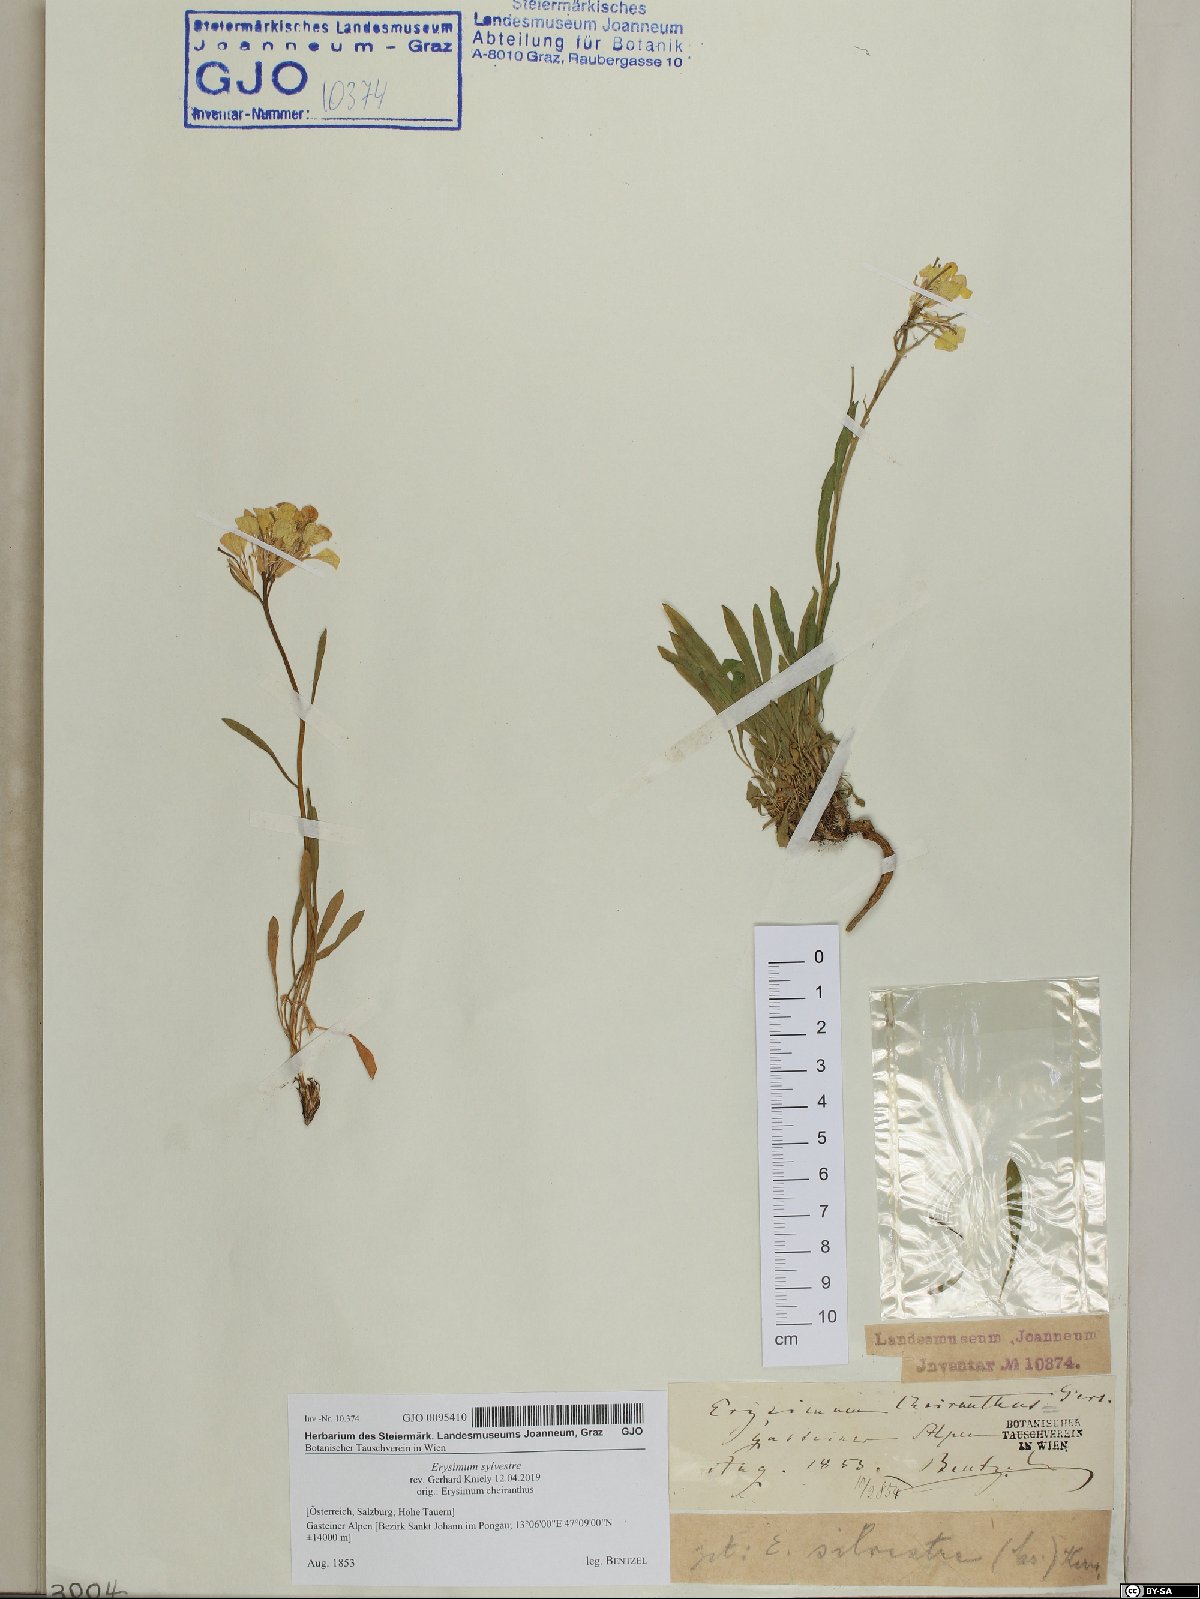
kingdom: Plantae
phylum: Tracheophyta
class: Magnoliopsida
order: Brassicales
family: Brassicaceae
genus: Erysimum
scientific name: Erysimum sylvestre
